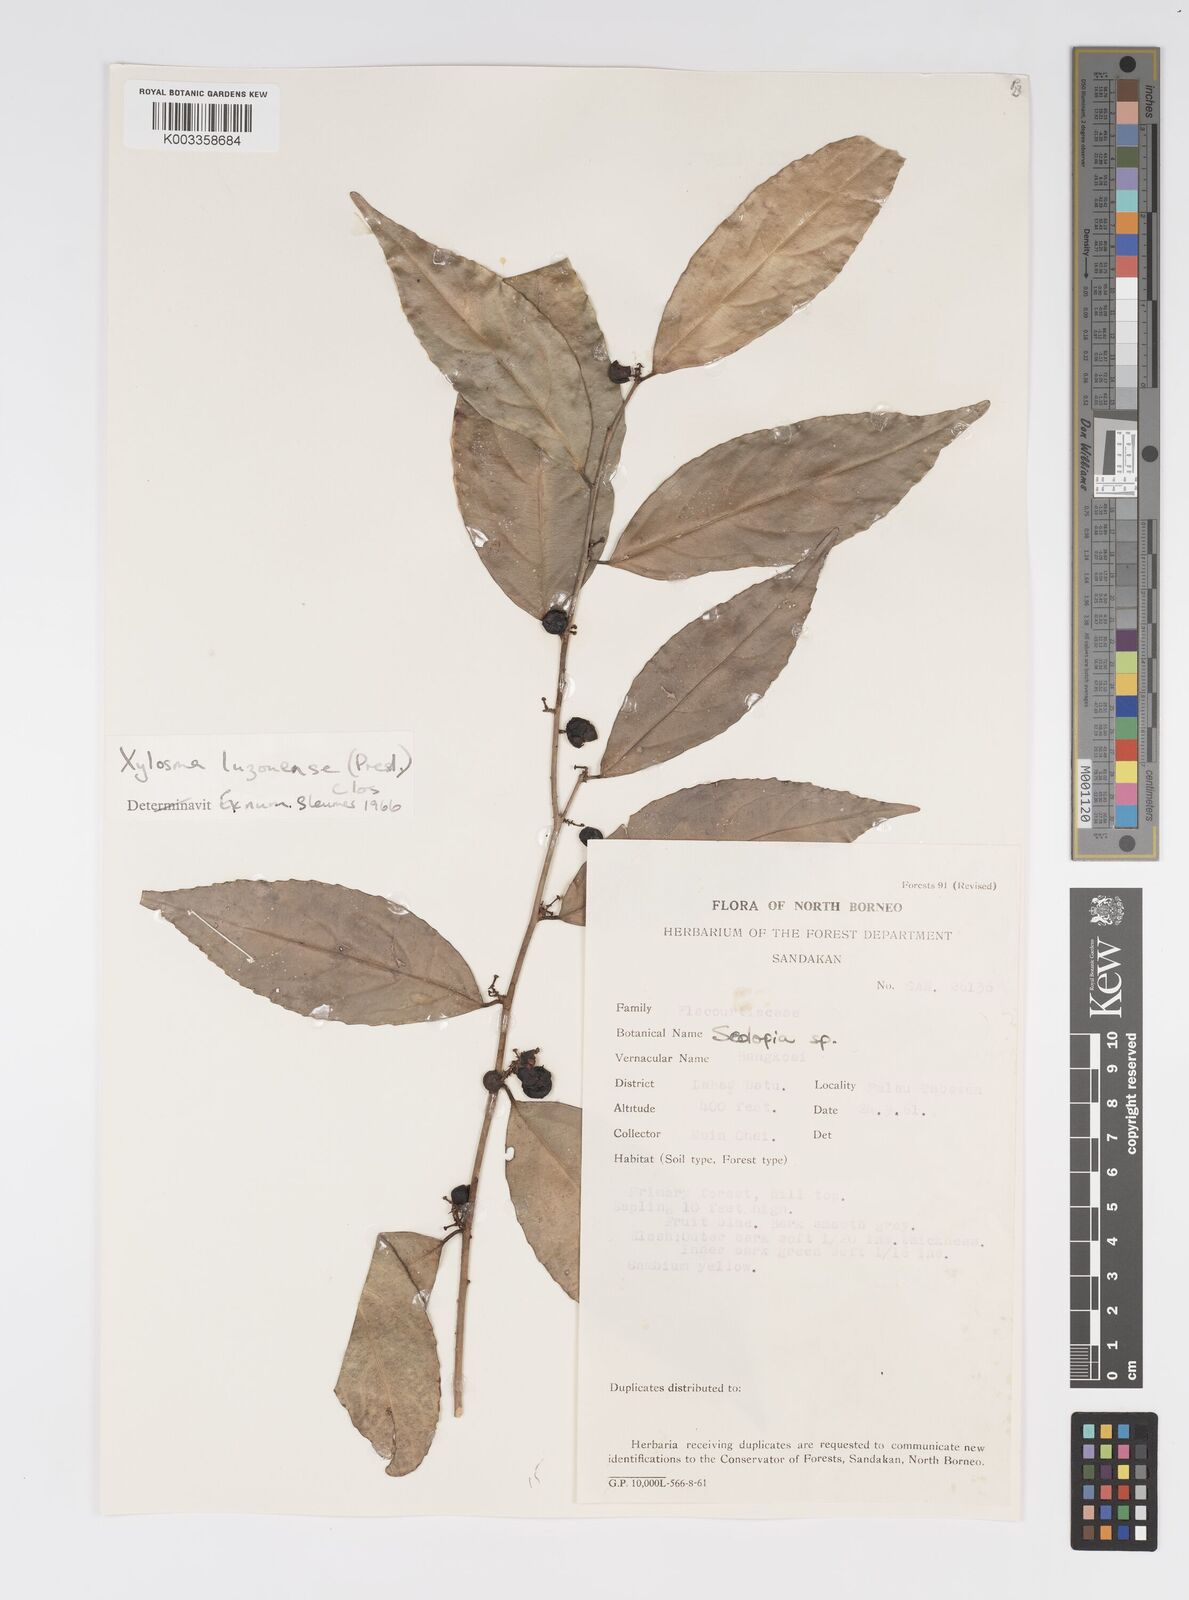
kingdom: Plantae
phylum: Tracheophyta
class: Magnoliopsida
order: Malpighiales
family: Salicaceae
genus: Xylosma
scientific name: Xylosma luzonensis
